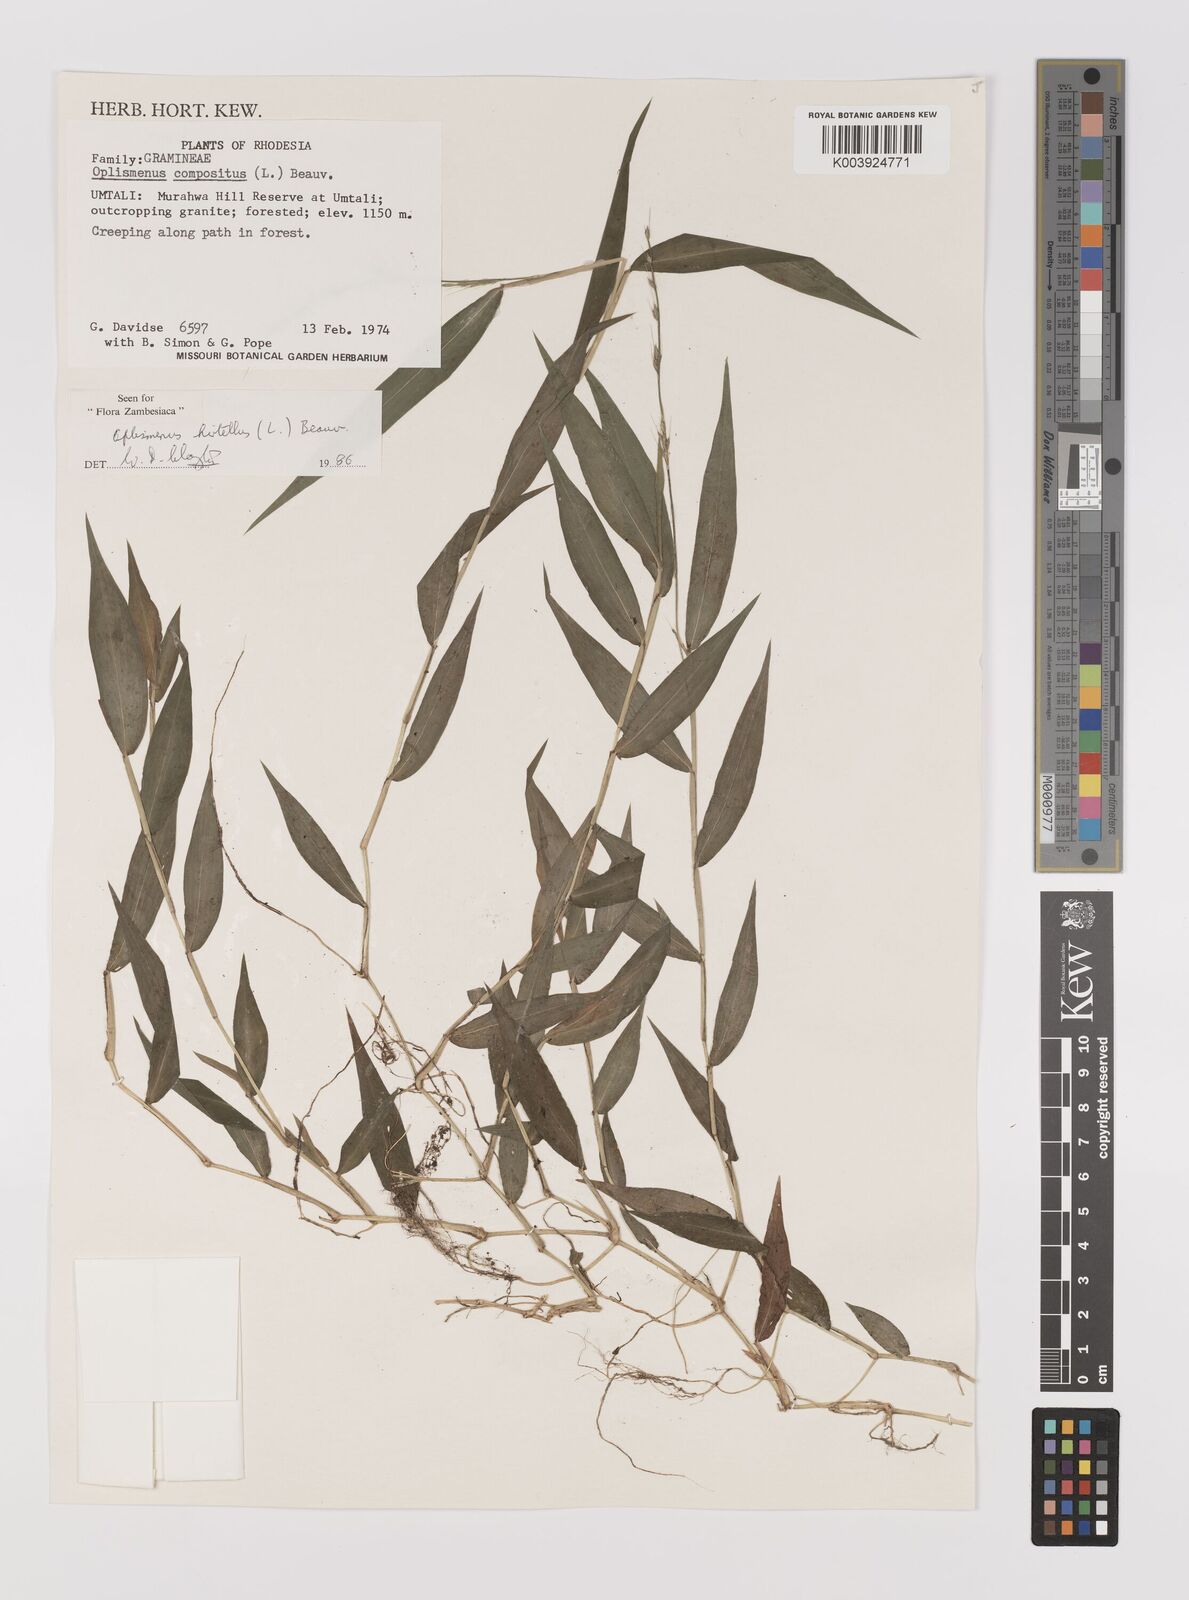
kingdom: Plantae
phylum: Tracheophyta
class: Liliopsida
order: Poales
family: Poaceae
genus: Oplismenus
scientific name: Oplismenus hirtellus
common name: Basketgrass
